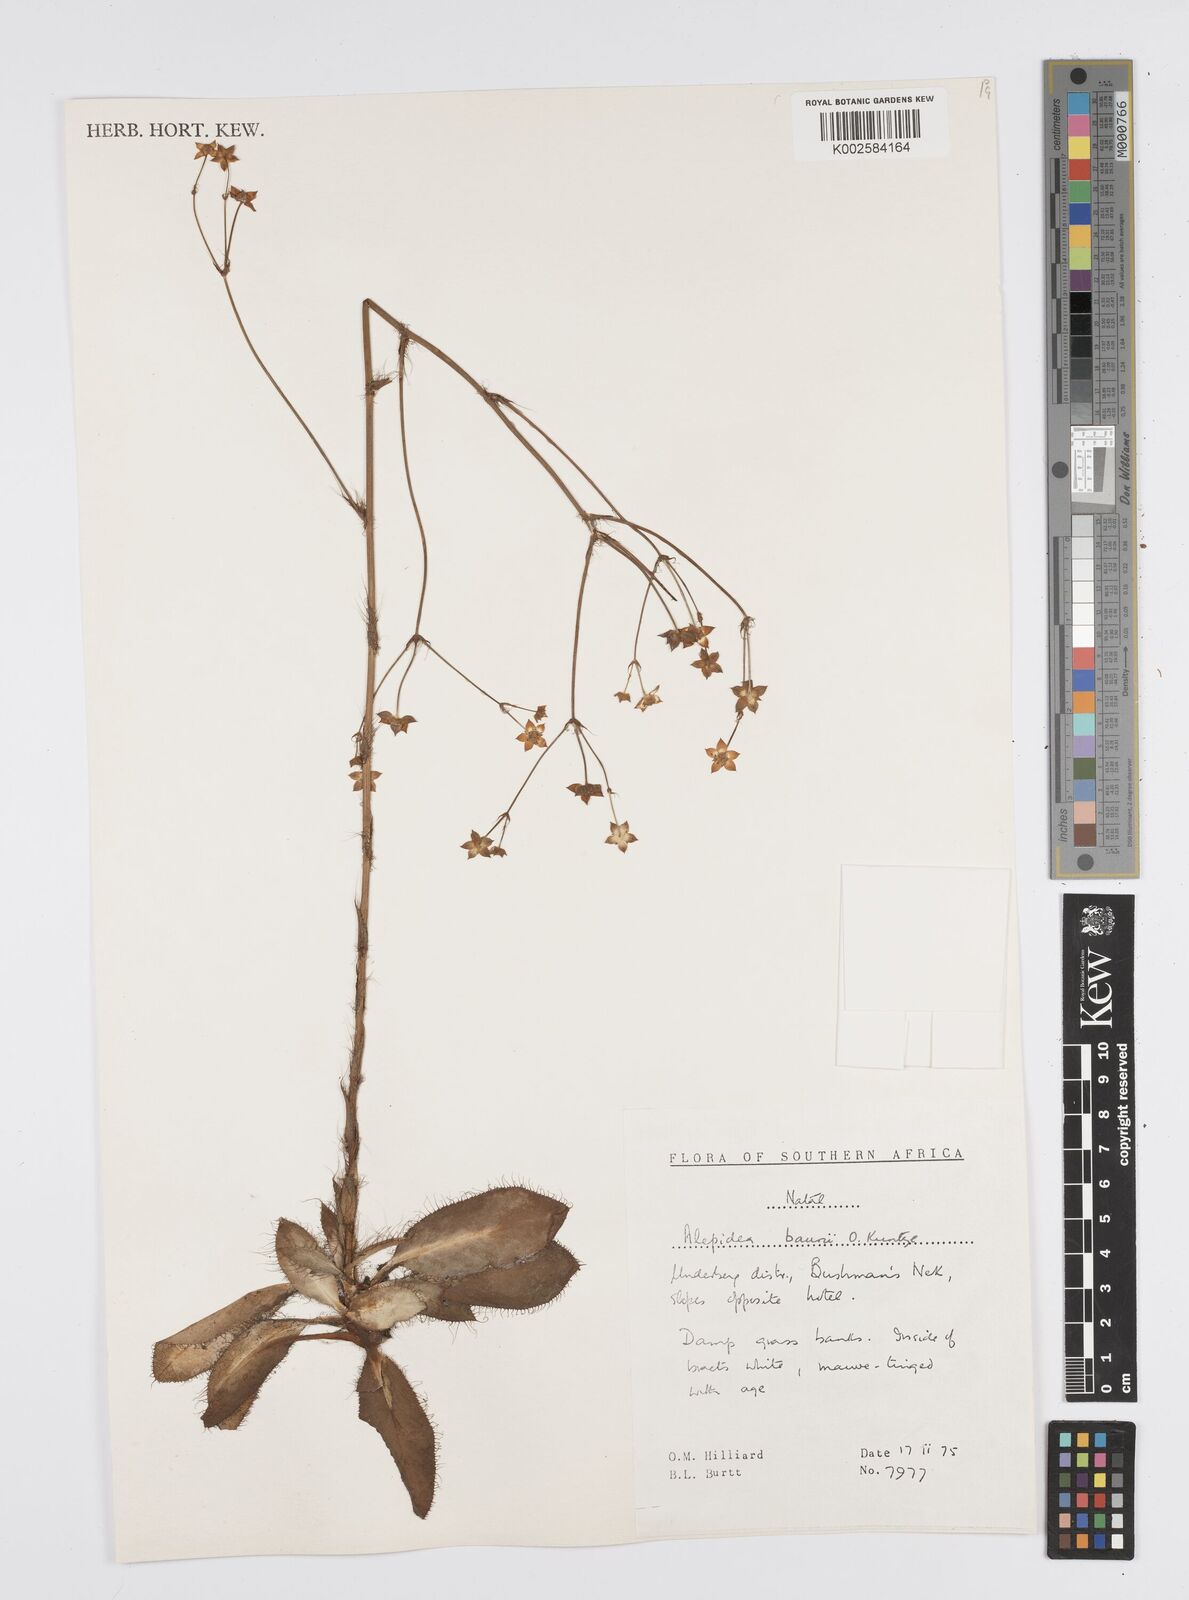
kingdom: Plantae
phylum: Tracheophyta
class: Magnoliopsida
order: Apiales
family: Apiaceae
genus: Alepidea
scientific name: Alepidea natalensis
